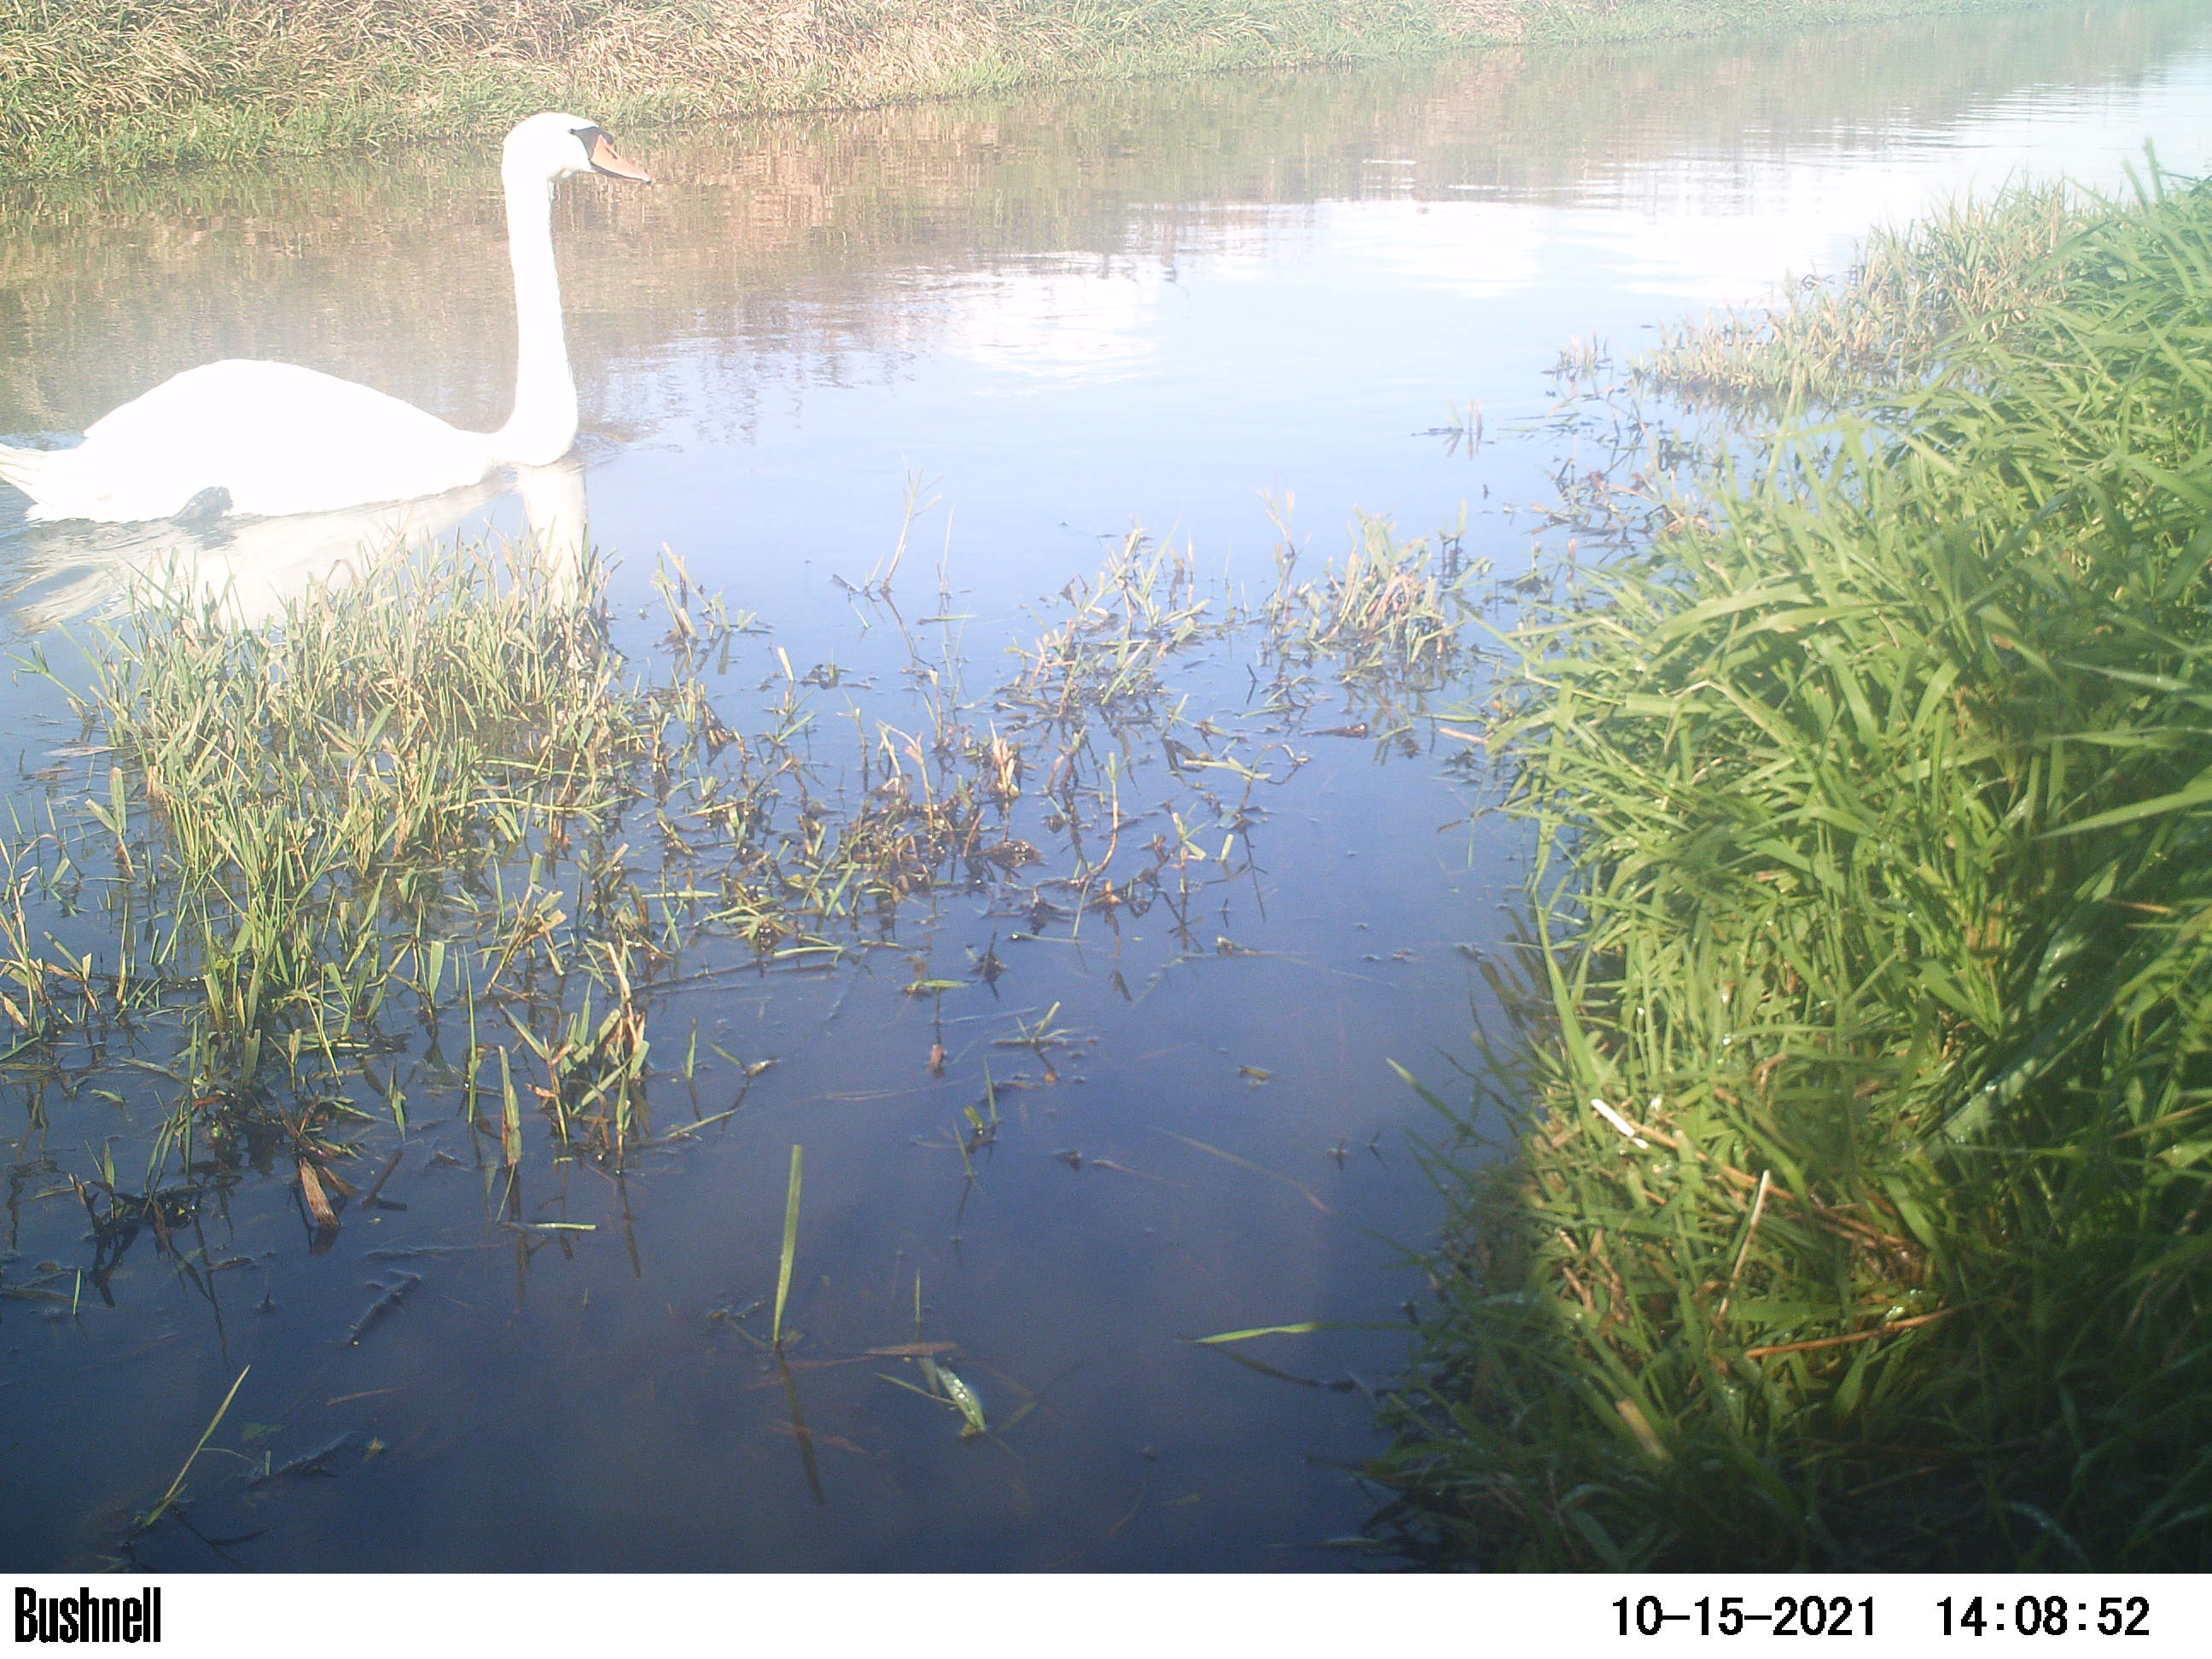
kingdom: Animalia
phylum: Chordata
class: Aves
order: Anseriformes
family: Anatidae
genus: Cygnus
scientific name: Cygnus olor
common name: Mute swan
